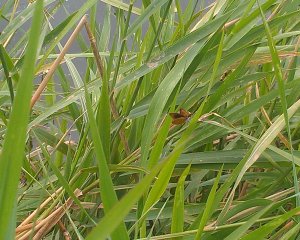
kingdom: Animalia
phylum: Arthropoda
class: Insecta
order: Lepidoptera
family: Hesperiidae
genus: Ancyloxypha
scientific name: Ancyloxypha numitor
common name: Least Skipper
